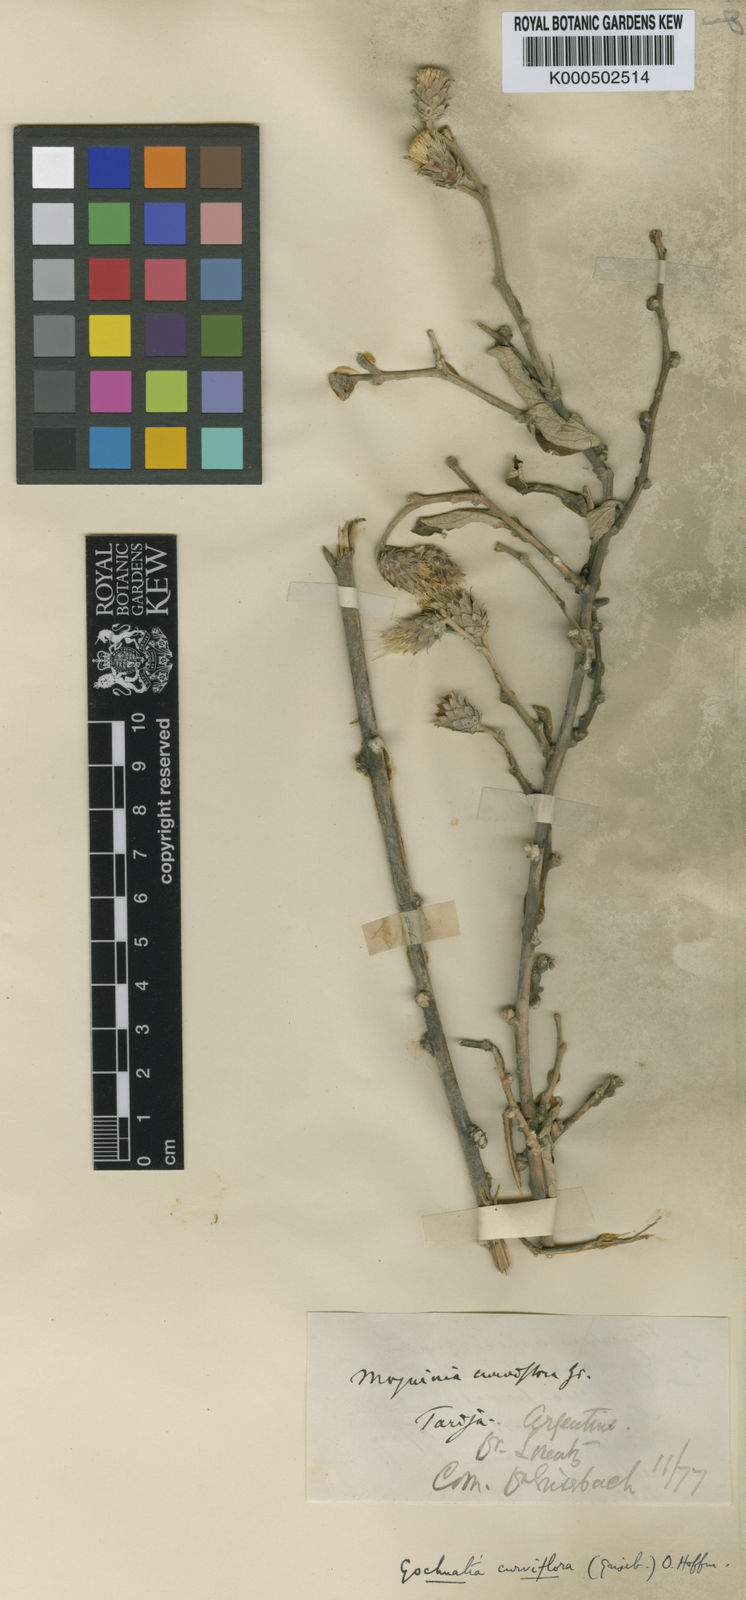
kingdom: Plantae
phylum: Tracheophyta
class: Magnoliopsida
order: Asterales
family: Asteraceae
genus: Gochnatia
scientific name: Gochnatia curviflora
